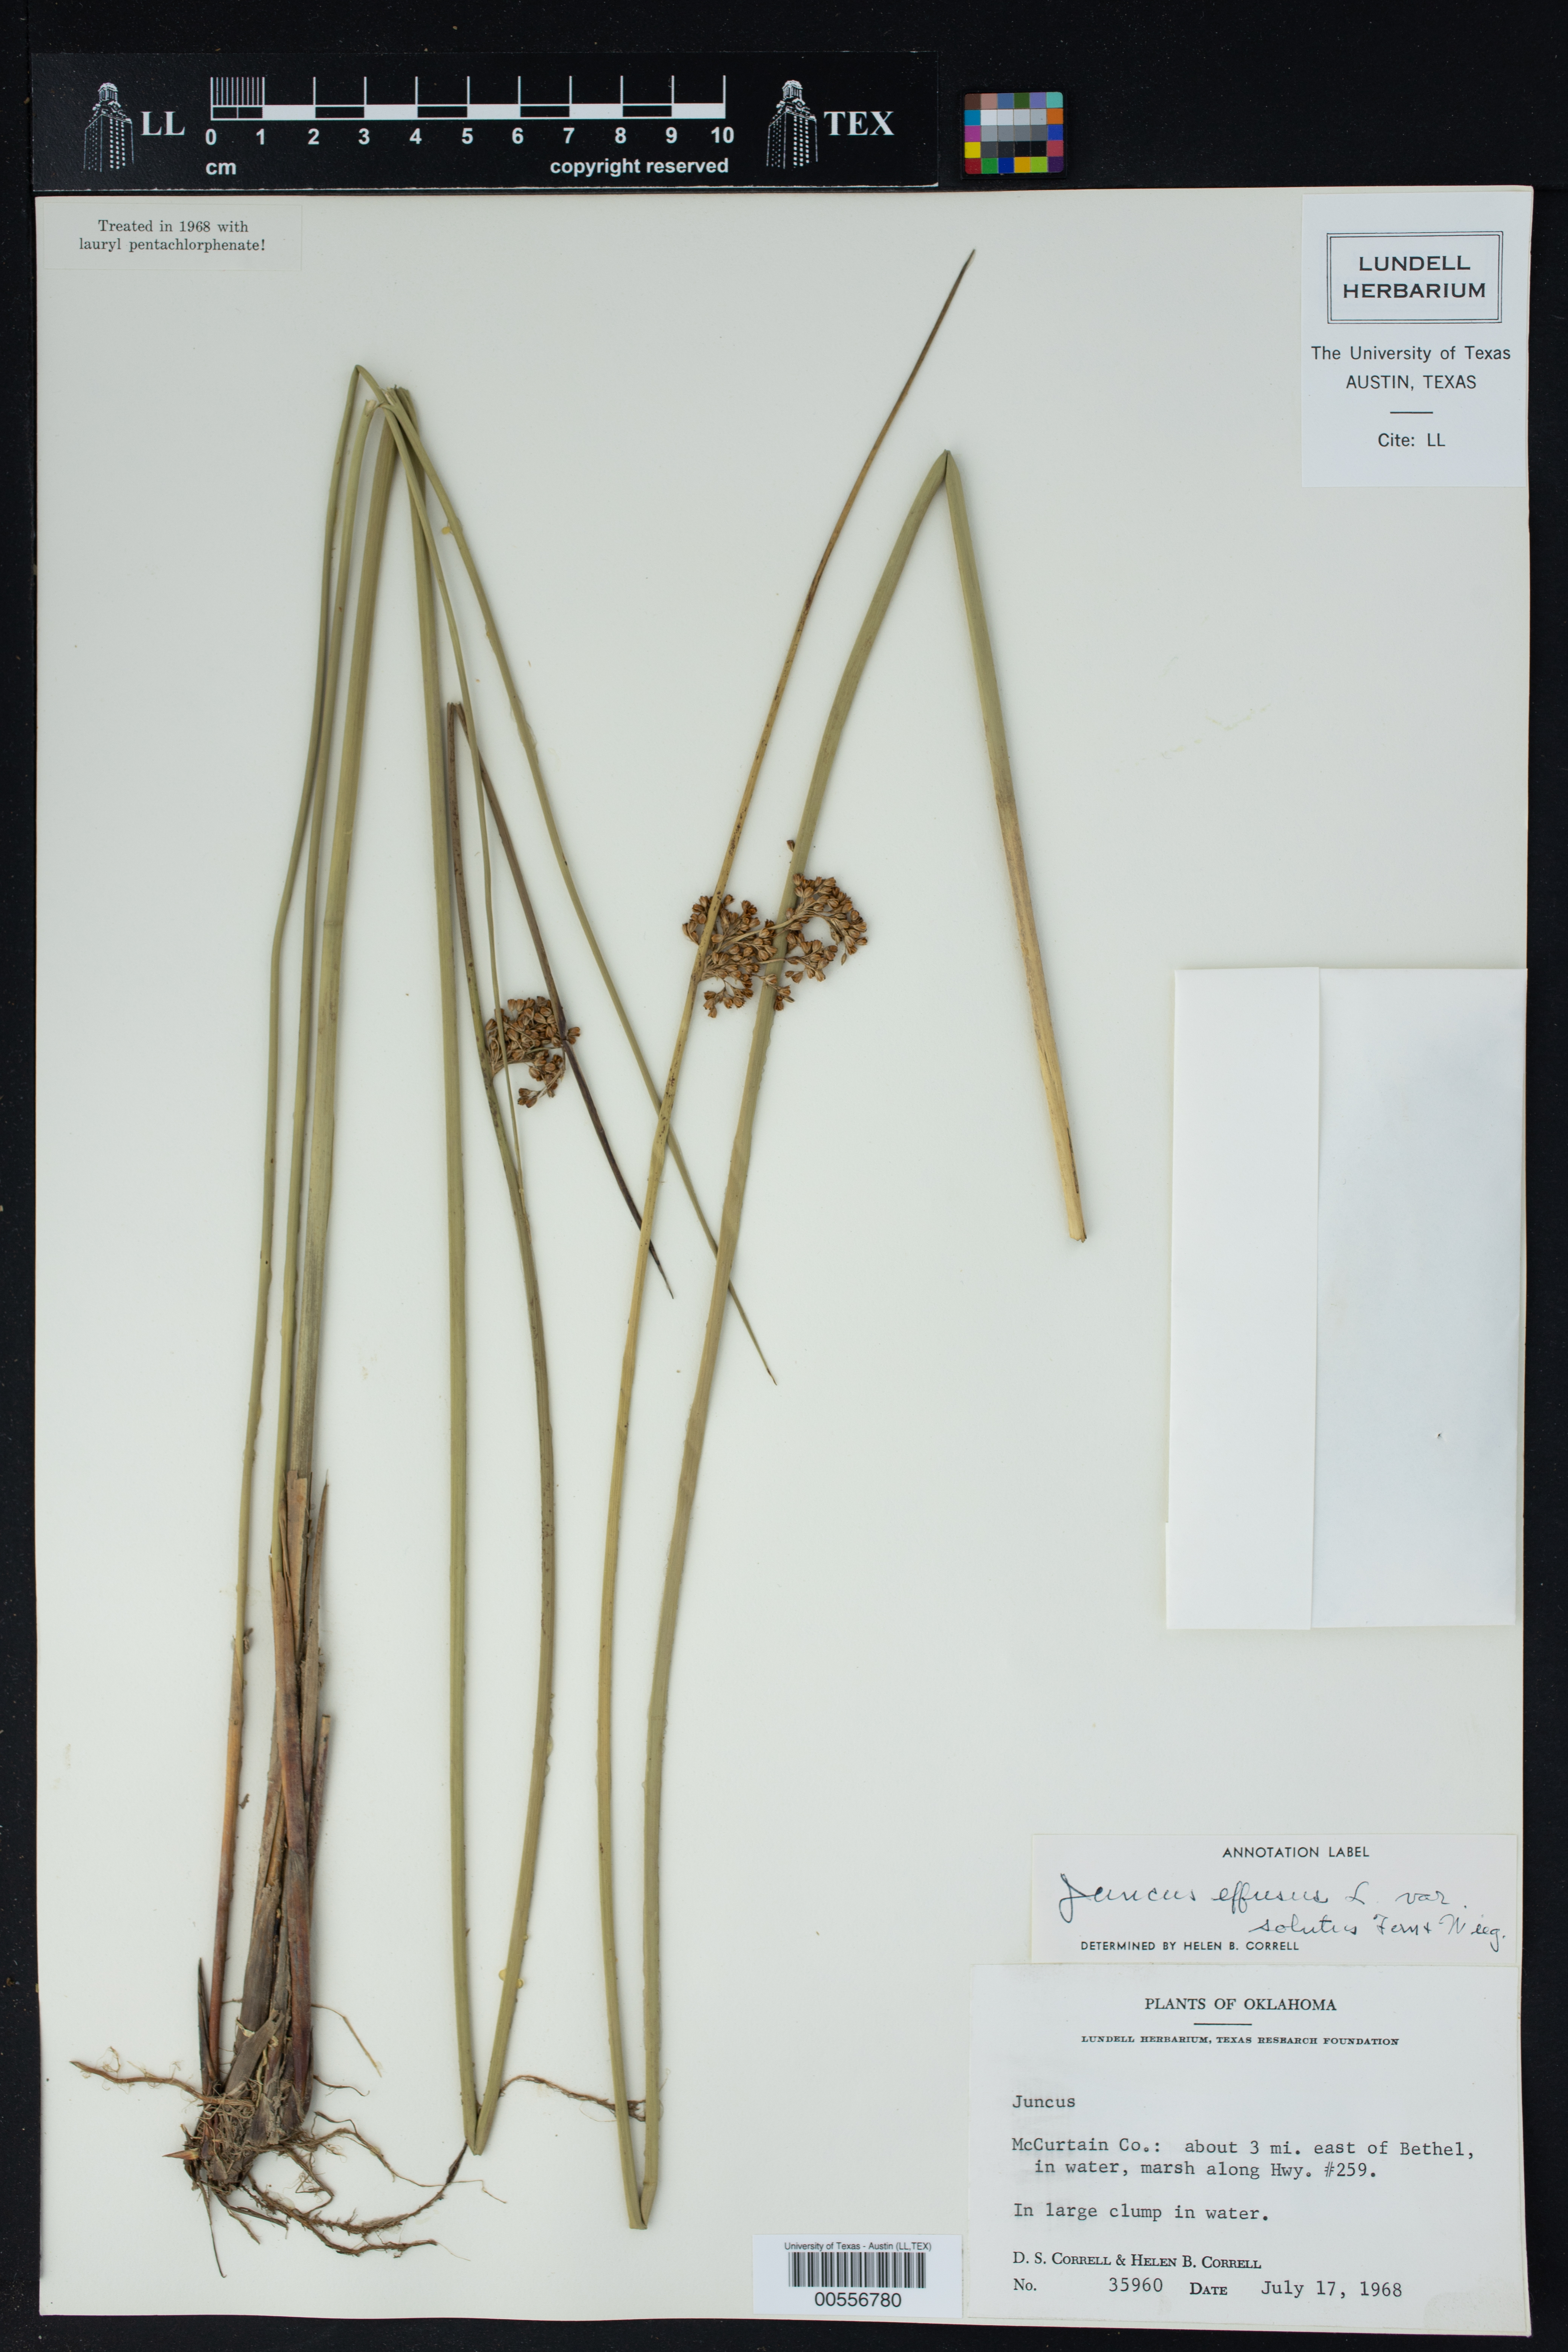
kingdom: Plantae
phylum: Tracheophyta
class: Liliopsida
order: Poales
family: Juncaceae
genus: Juncus
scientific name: Juncus effusus
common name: Soft rush
